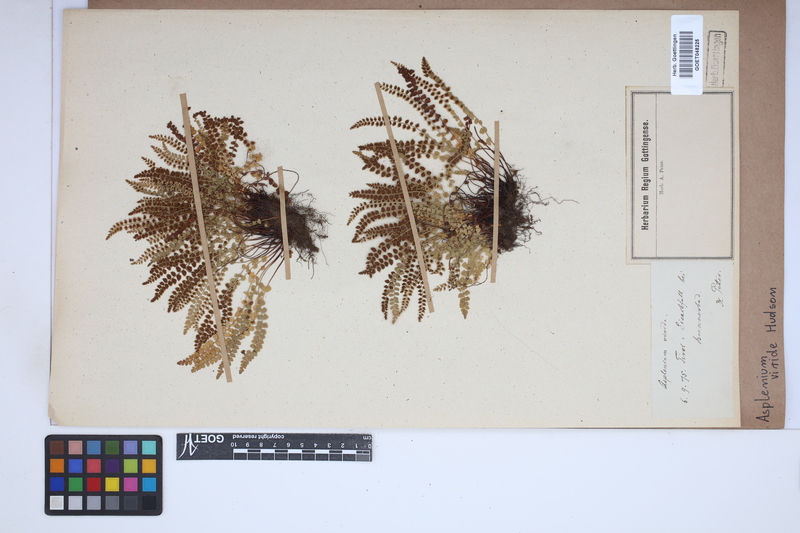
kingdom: Plantae
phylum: Tracheophyta
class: Polypodiopsida
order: Polypodiales
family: Aspleniaceae
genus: Asplenium
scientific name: Asplenium viride
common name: Green spleenwort
